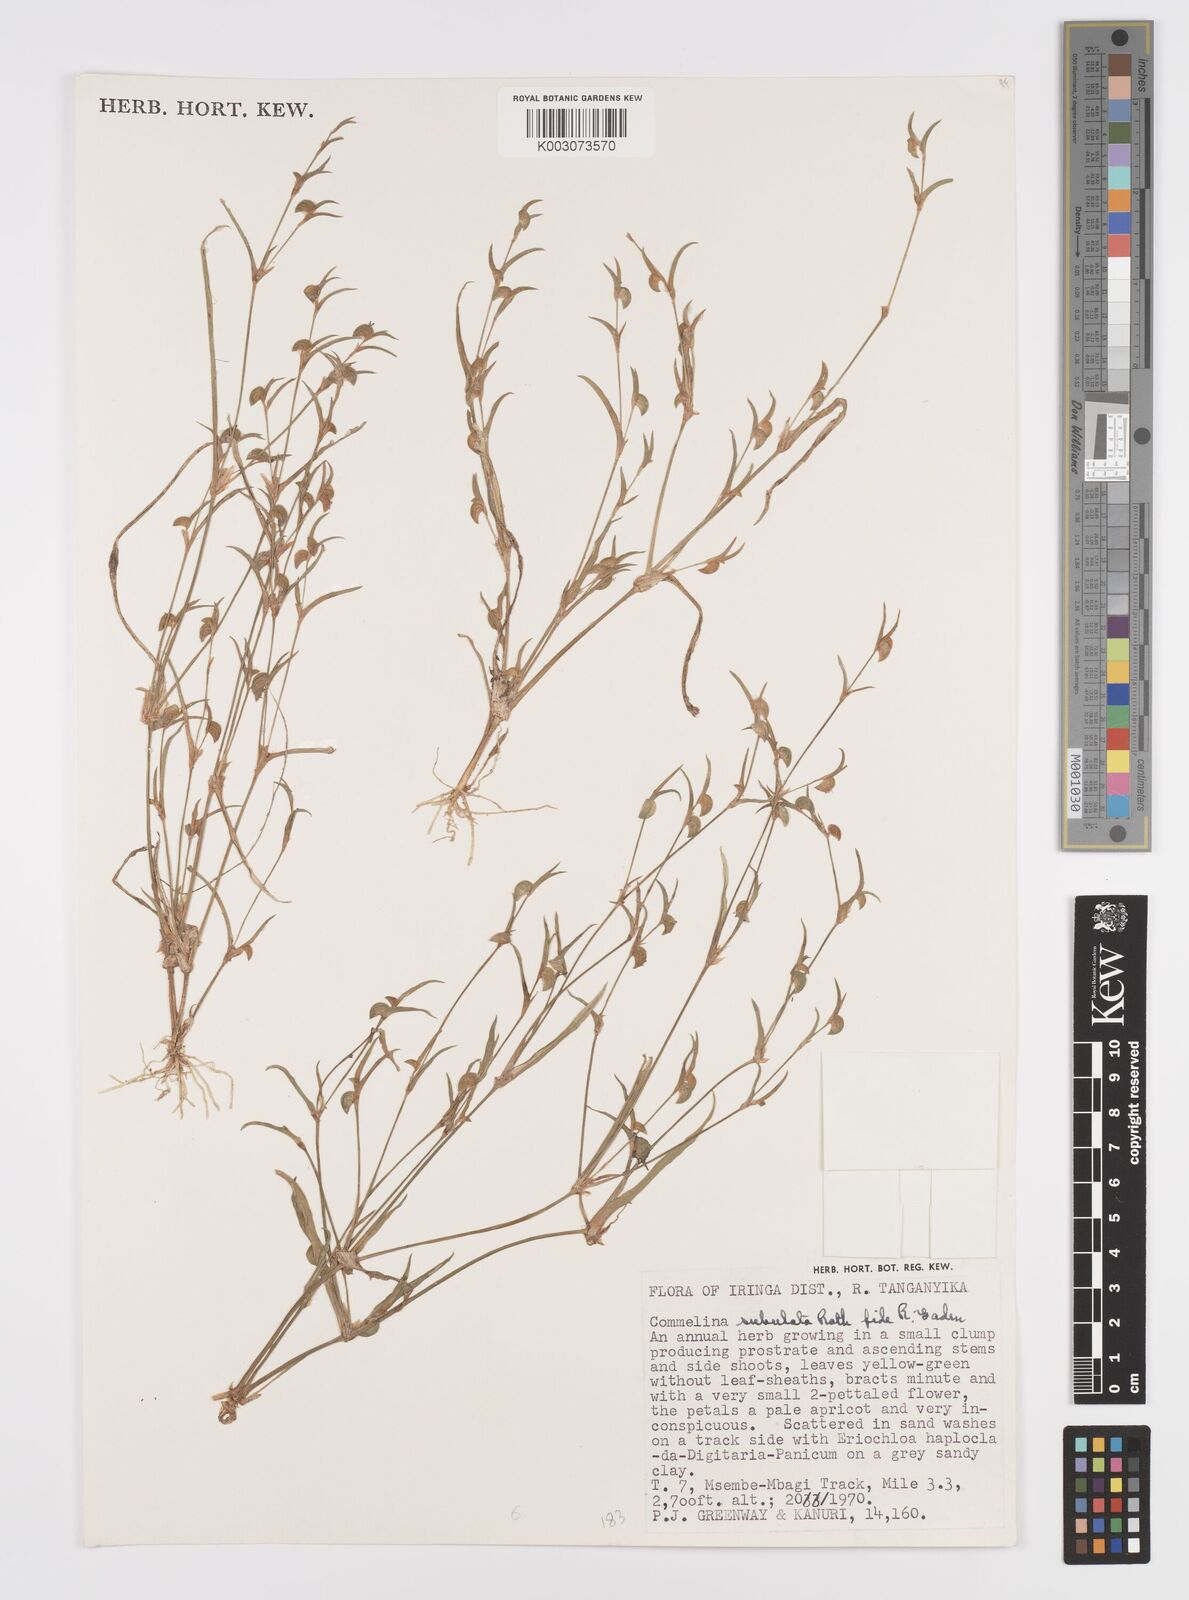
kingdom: Plantae
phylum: Tracheophyta
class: Liliopsida
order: Commelinales
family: Commelinaceae
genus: Commelina
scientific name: Commelina subulata
